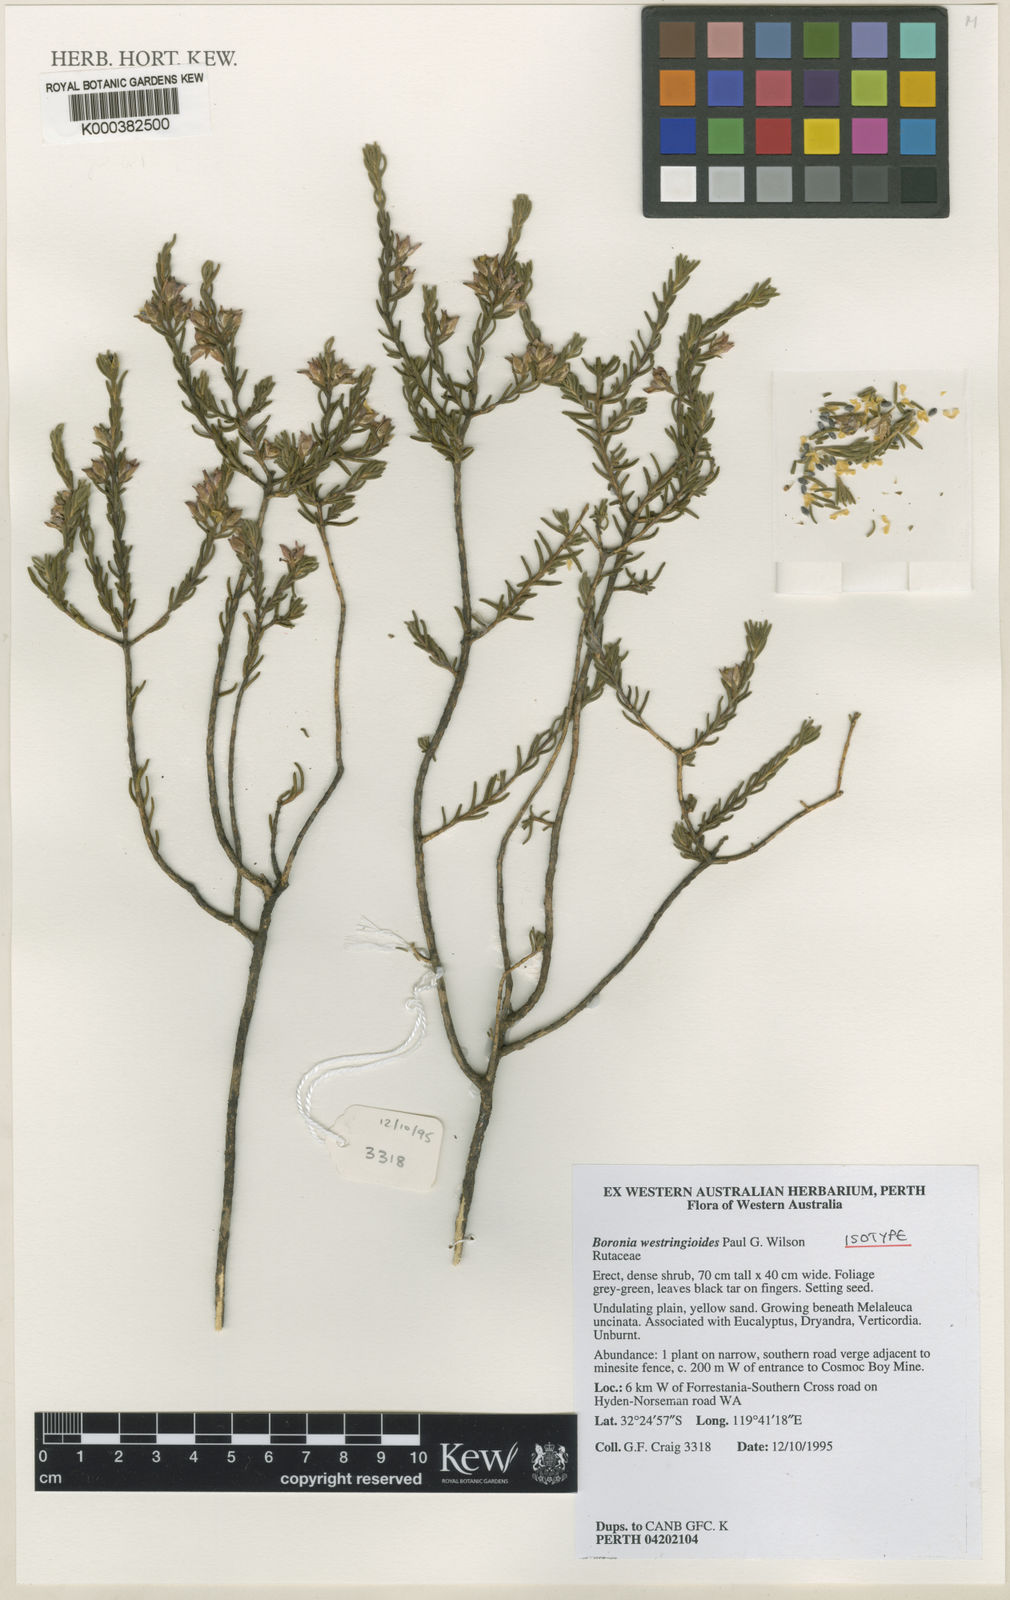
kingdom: Plantae
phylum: Tracheophyta
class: Magnoliopsida
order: Sapindales
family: Rutaceae
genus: Cyanothamnus
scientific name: Cyanothamnus westringioides
